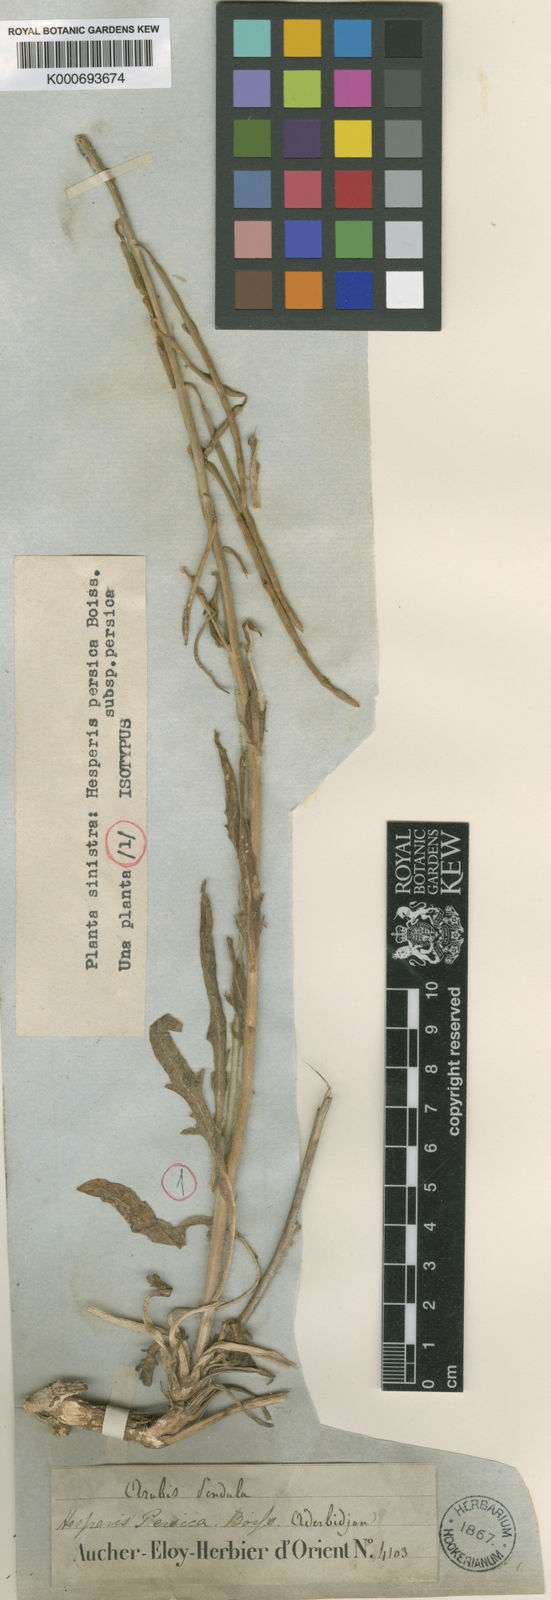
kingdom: Plantae
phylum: Tracheophyta
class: Magnoliopsida
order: Brassicales
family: Brassicaceae
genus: Hesperis
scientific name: Hesperis persica
